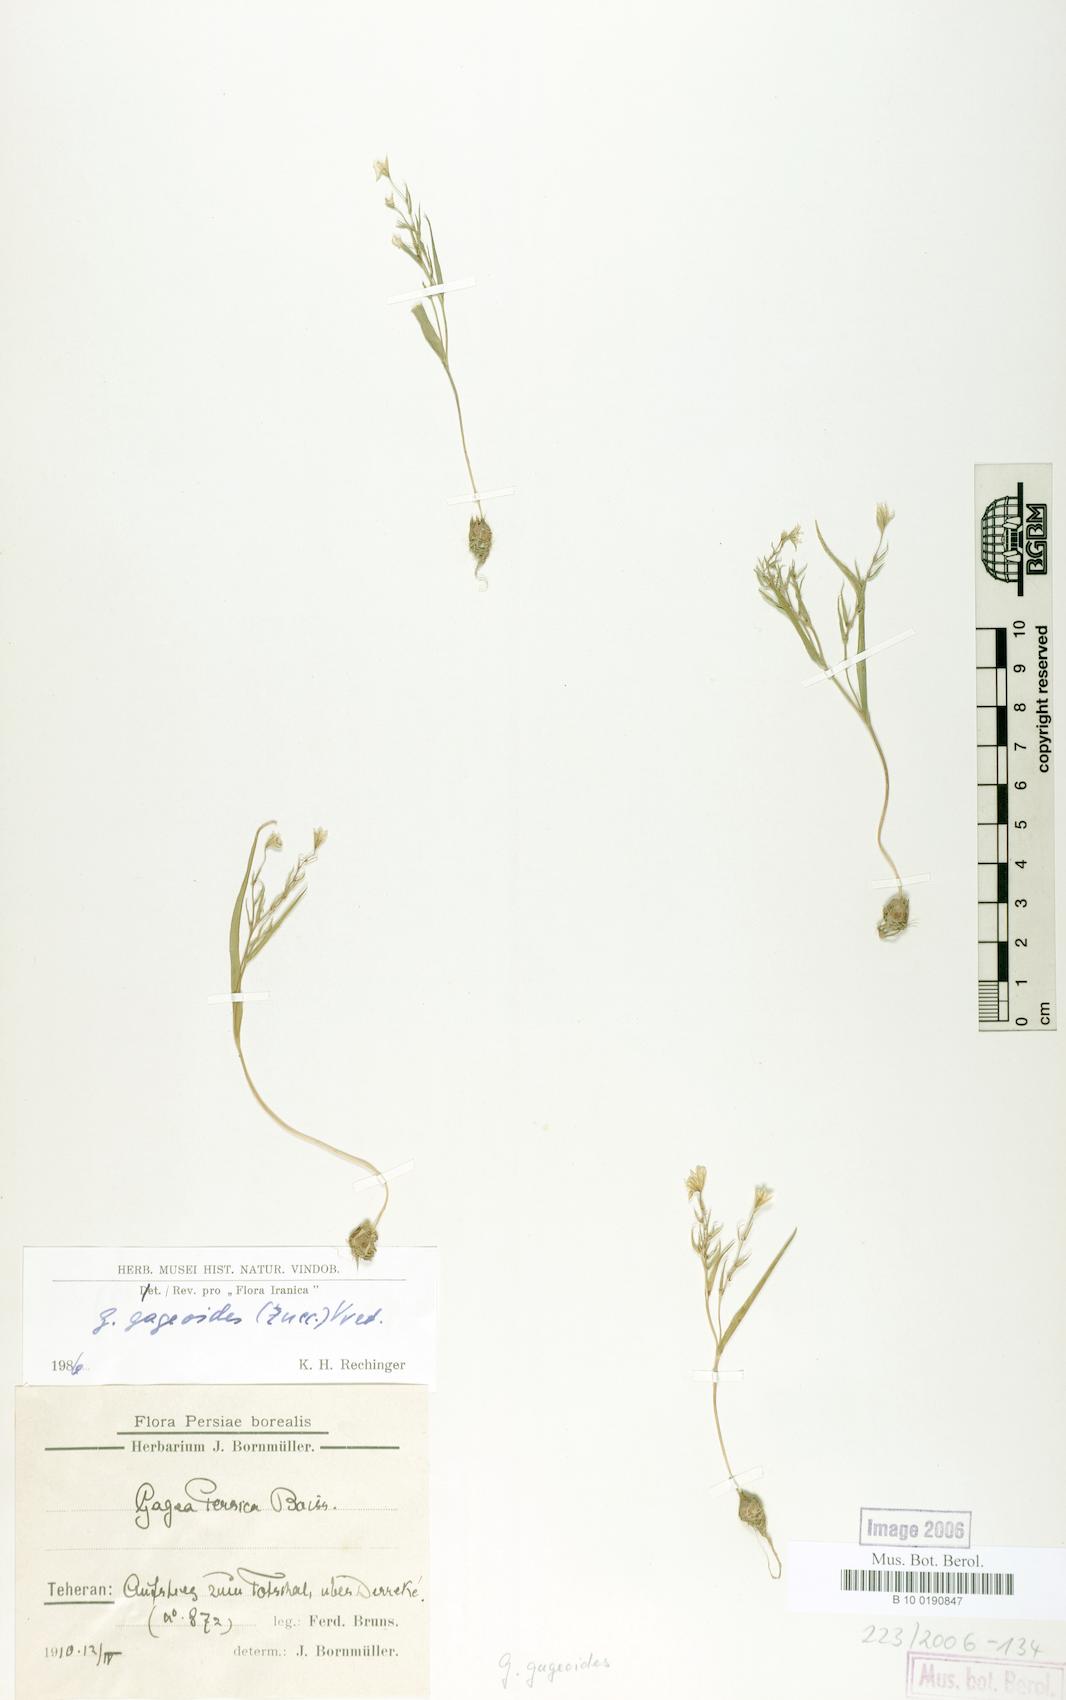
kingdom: Plantae
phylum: Tracheophyta
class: Liliopsida
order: Liliales
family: Liliaceae
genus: Gagea
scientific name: Gagea gageoides
